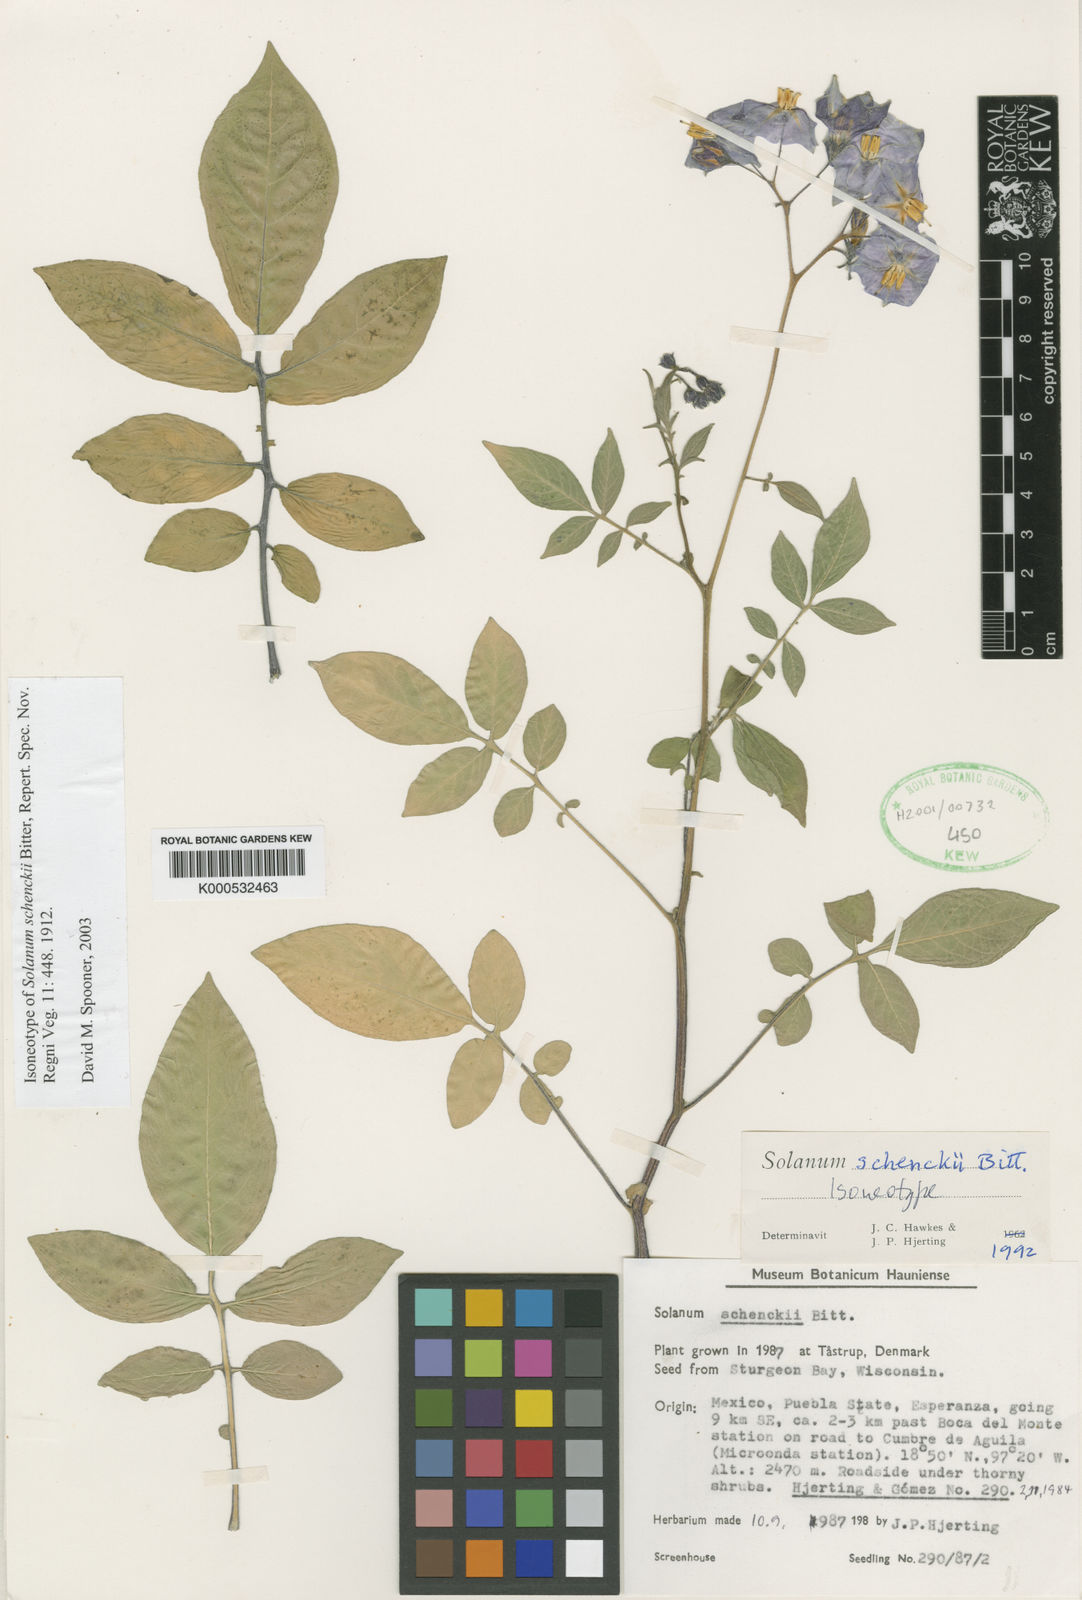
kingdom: Plantae
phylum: Tracheophyta
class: Magnoliopsida
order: Solanales
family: Solanaceae
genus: Solanum
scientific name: Solanum schenckii
